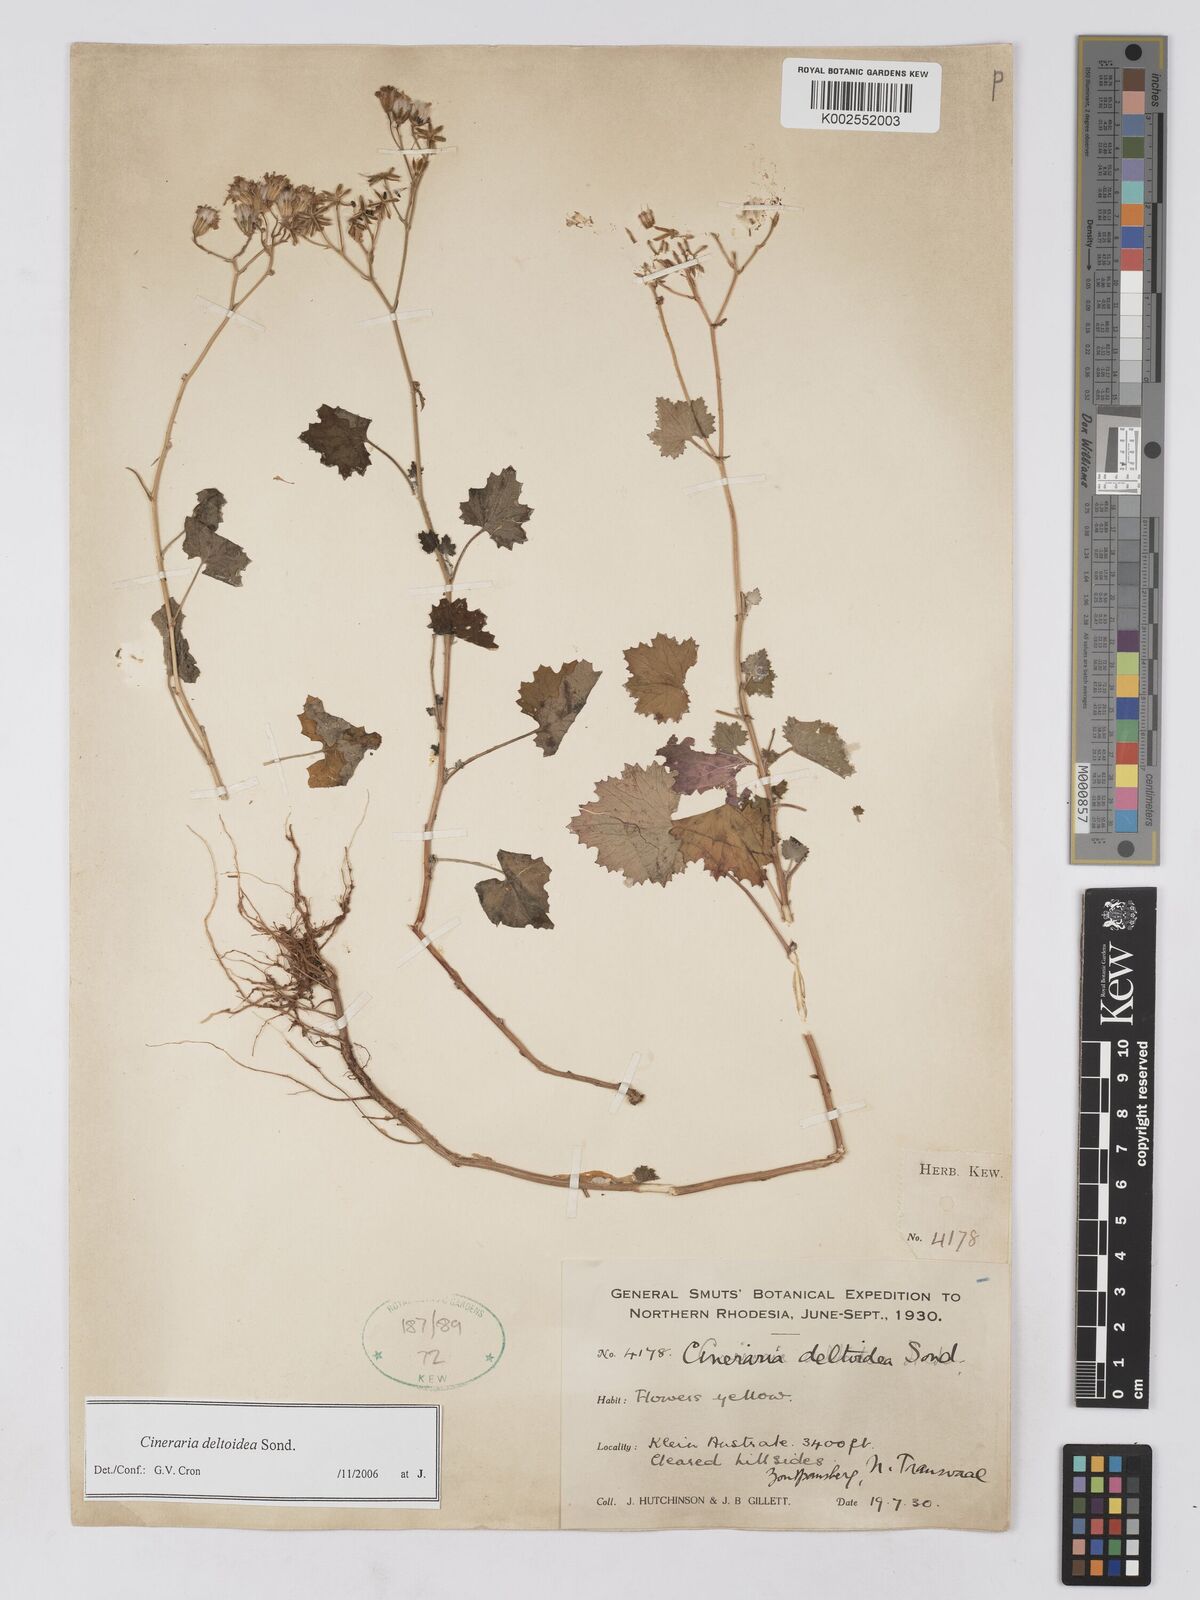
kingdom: Plantae
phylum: Tracheophyta
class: Magnoliopsida
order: Asterales
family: Asteraceae
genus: Cineraria
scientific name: Cineraria deltoidea
